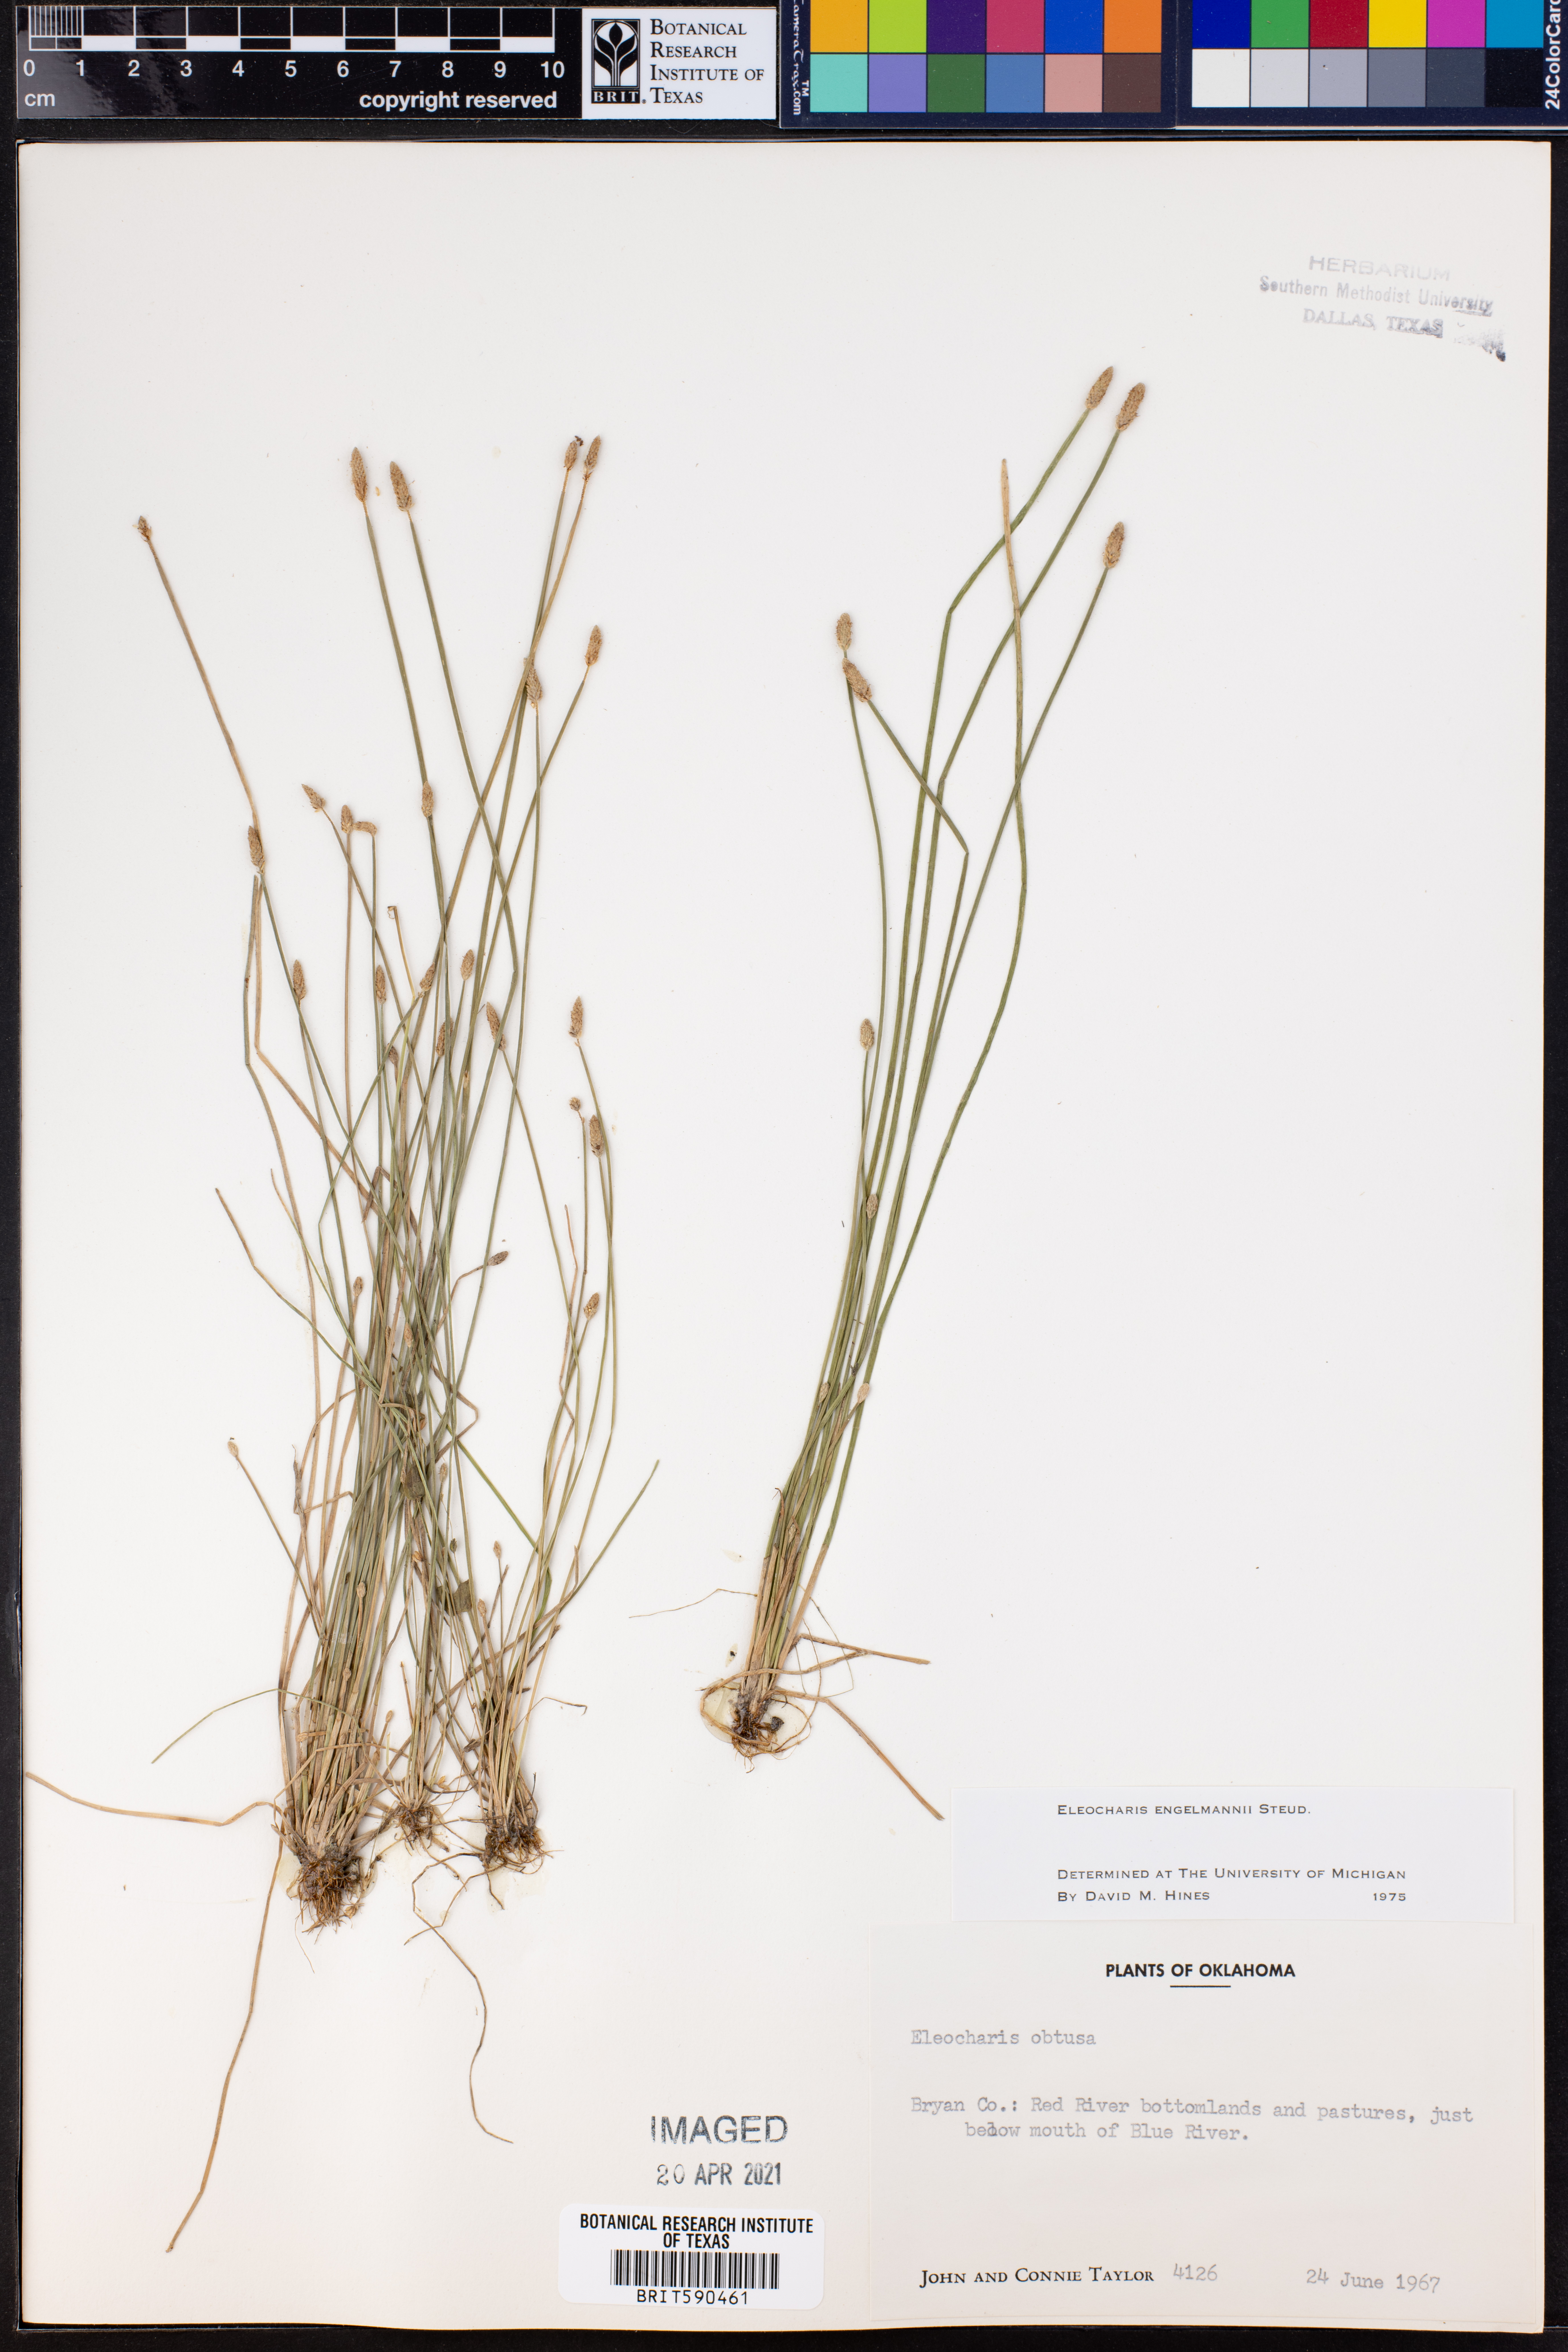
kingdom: Plantae
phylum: Tracheophyta
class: Liliopsida
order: Poales
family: Cyperaceae
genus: Eleocharis
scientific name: Eleocharis engelmannii
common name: Engelmann's spikerush
